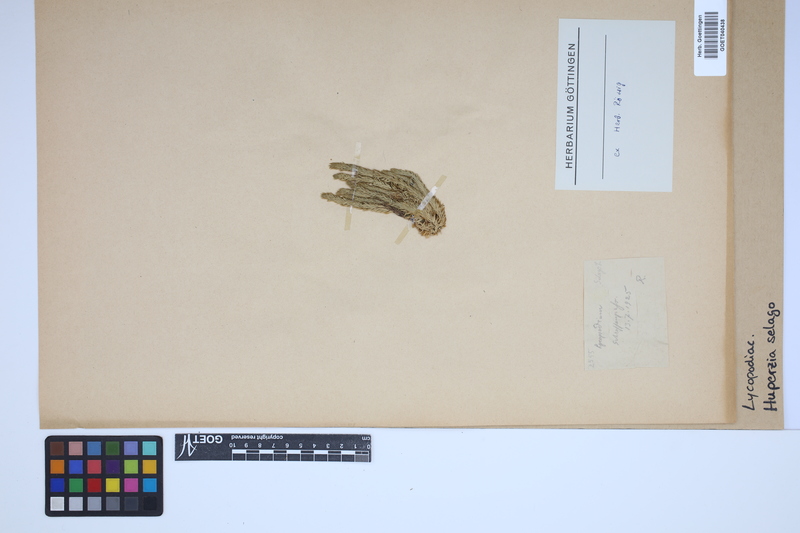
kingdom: Plantae
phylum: Tracheophyta
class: Lycopodiopsida
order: Lycopodiales
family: Lycopodiaceae
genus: Huperzia
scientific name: Huperzia selago
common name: Northern firmoss
